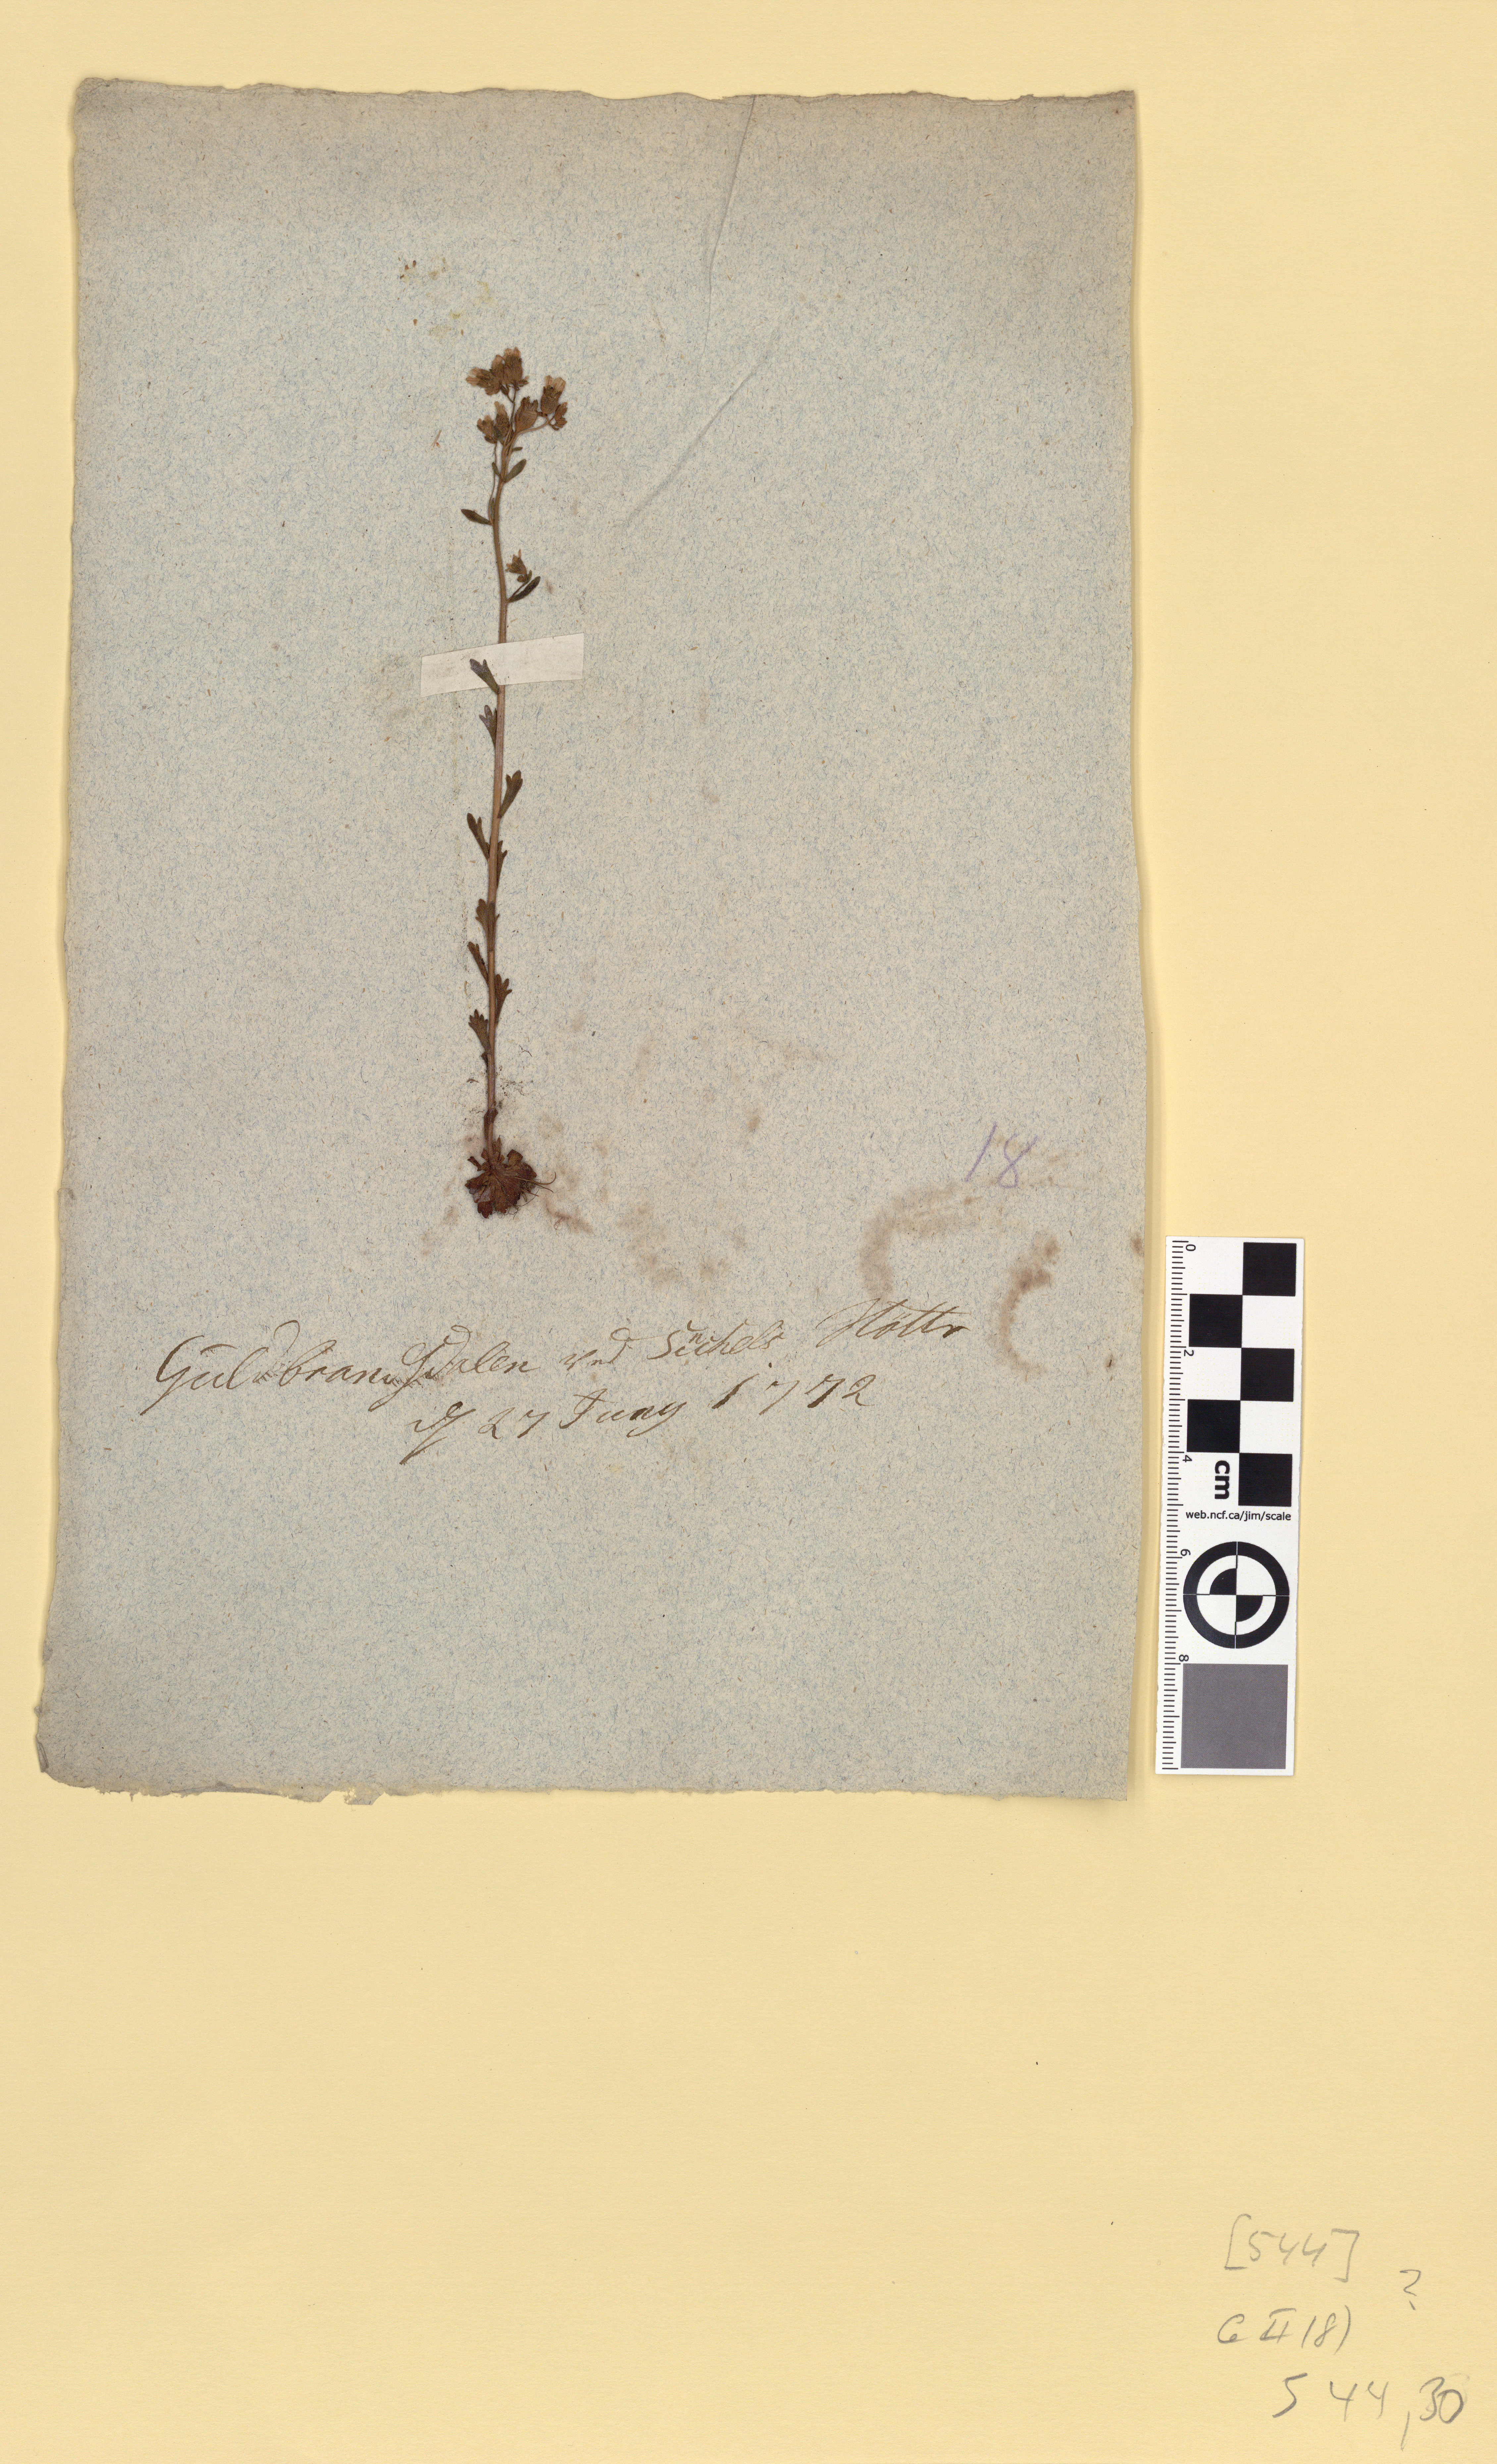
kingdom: Plantae
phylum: Tracheophyta
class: Magnoliopsida
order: Saxifragales
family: Saxifragaceae
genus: Saxifraga
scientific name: Saxifraga tridactylites
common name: Rue-leaved saxifrage
